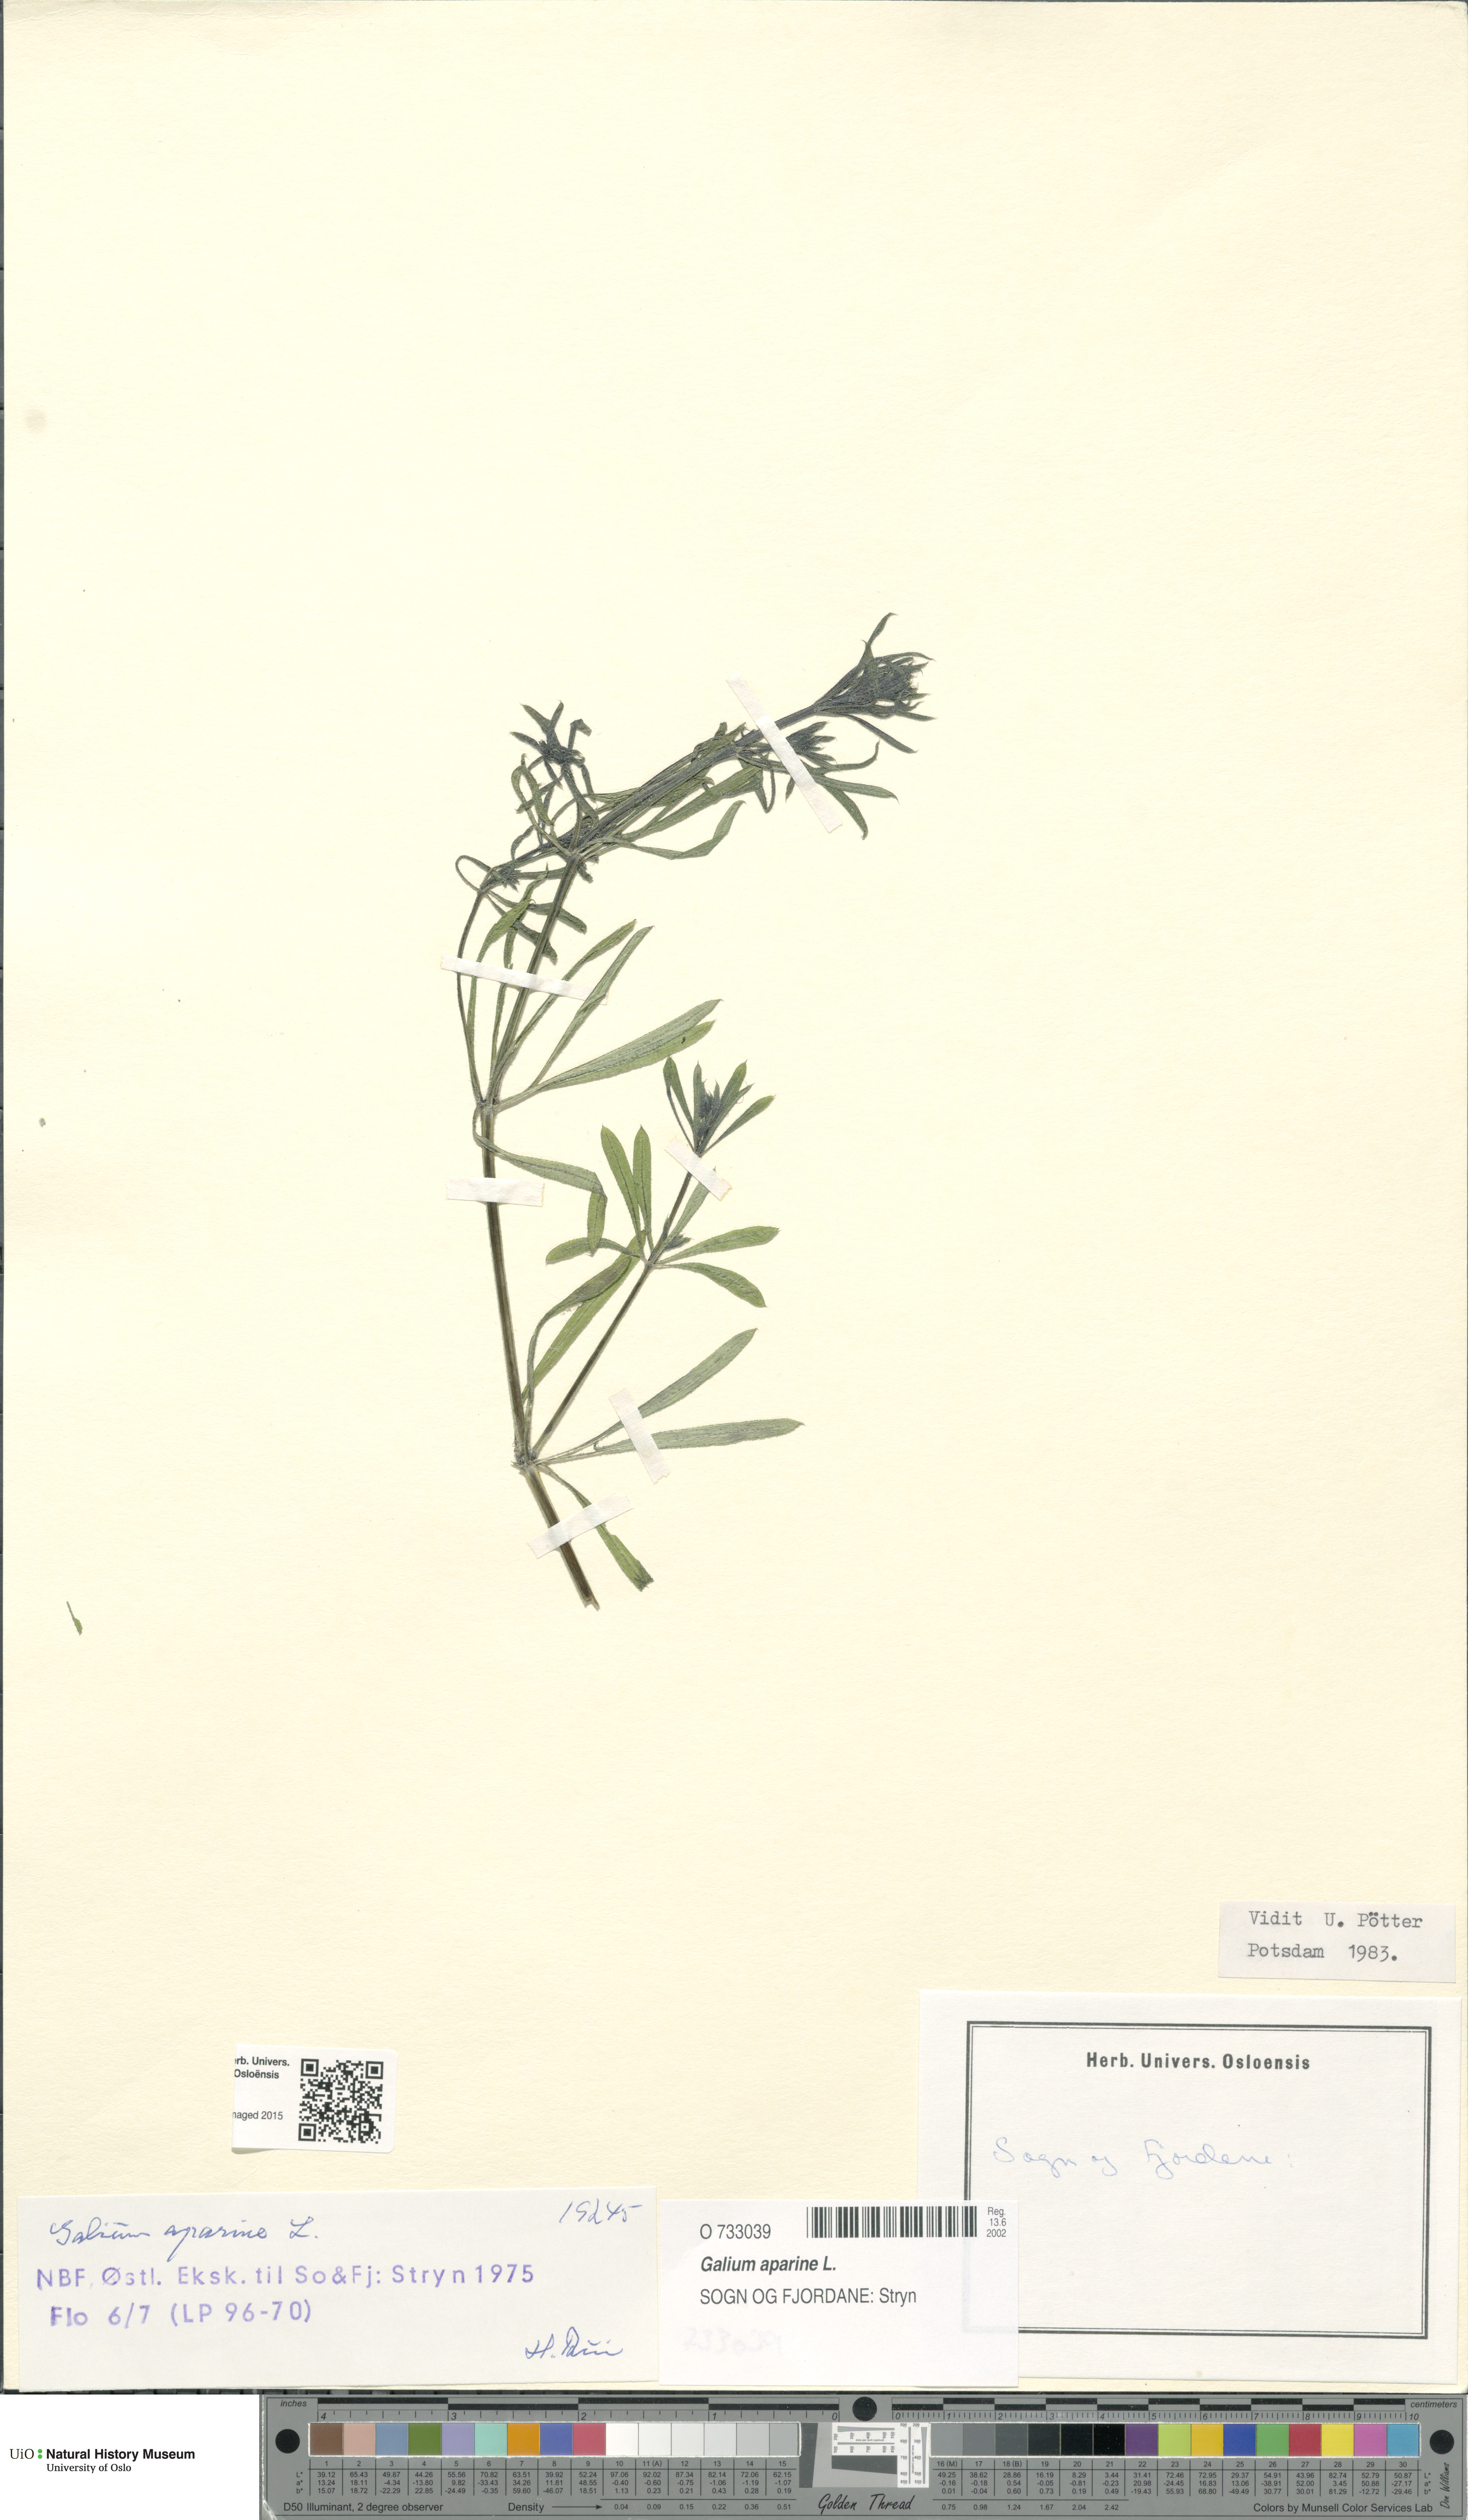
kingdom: Plantae
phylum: Tracheophyta
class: Magnoliopsida
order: Gentianales
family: Rubiaceae
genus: Galium
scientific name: Galium aparine
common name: Cleavers
